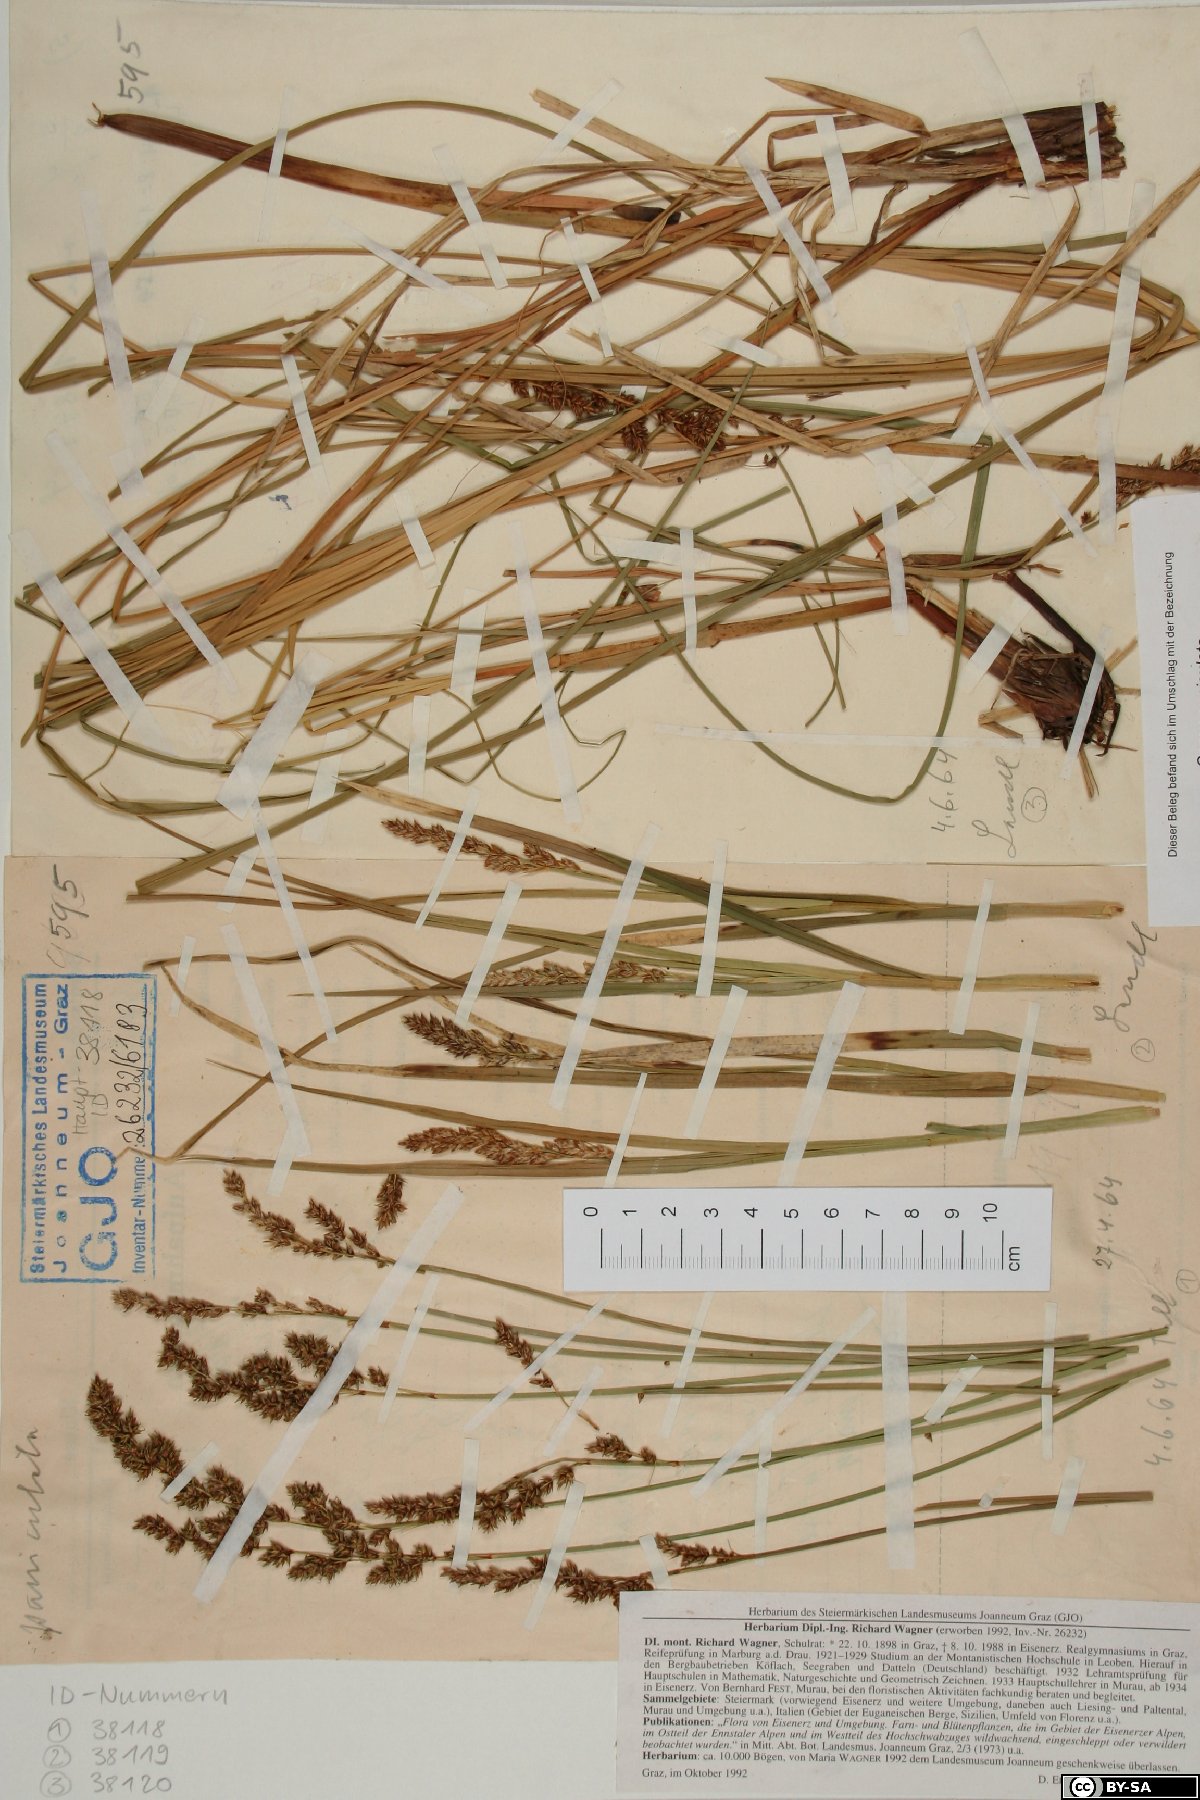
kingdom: Plantae
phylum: Tracheophyta
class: Liliopsida
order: Poales
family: Cyperaceae
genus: Carex
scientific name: Carex paniculata
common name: Greater tussock-sedge
